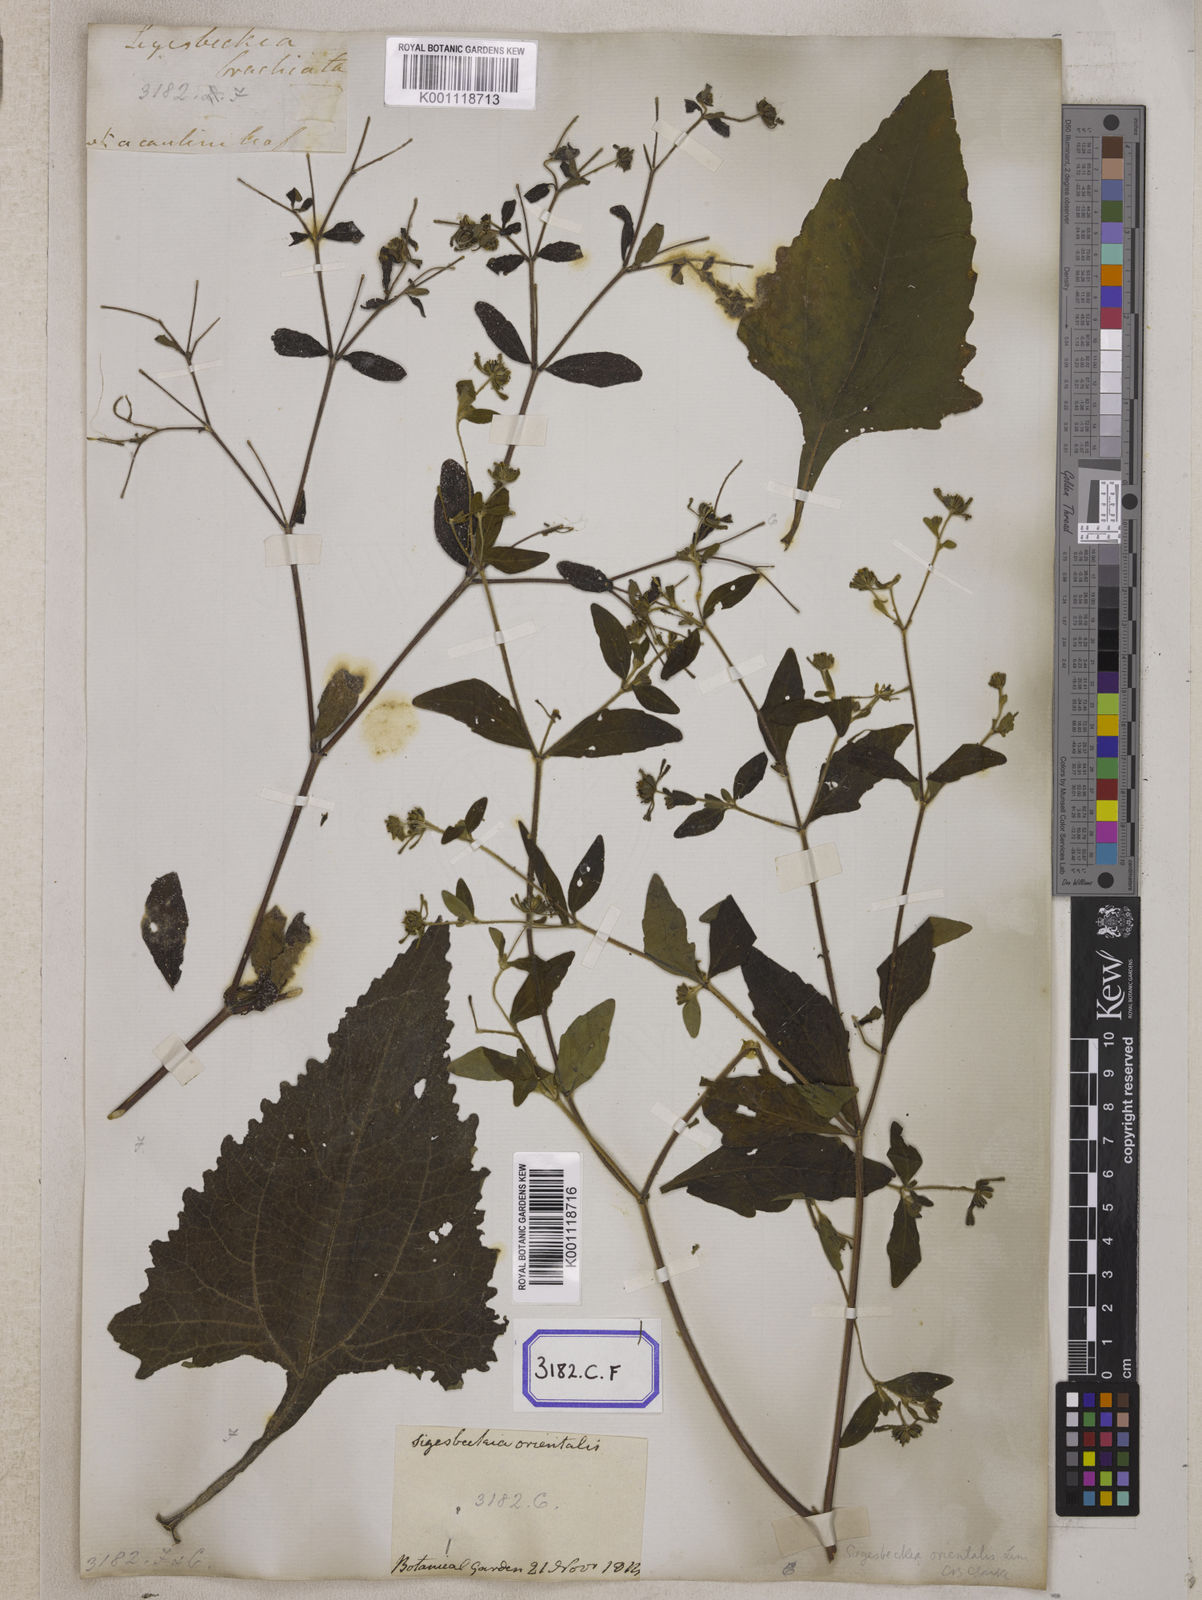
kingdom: Plantae
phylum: Tracheophyta
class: Magnoliopsida
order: Asterales
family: Asteraceae
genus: Sigesbeckia
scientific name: Sigesbeckia orientalis
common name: Eastern st paul's-wort
